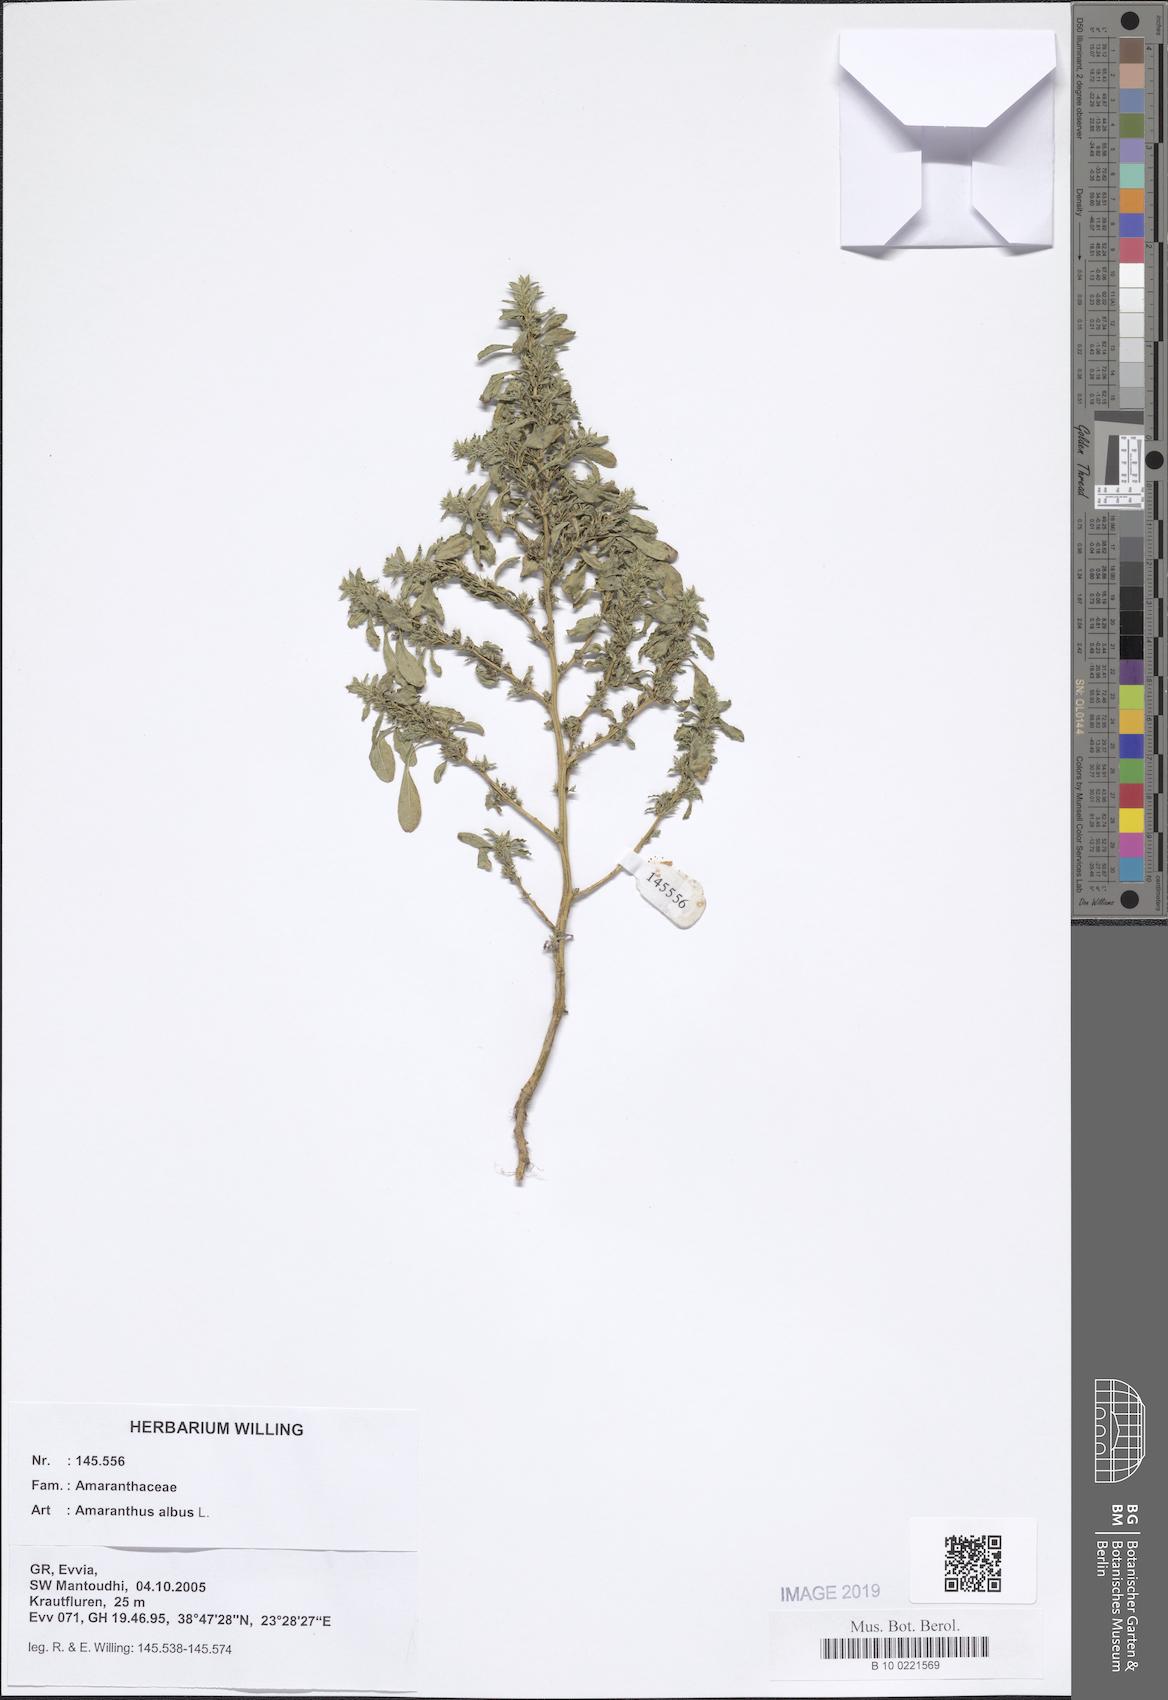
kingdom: Plantae
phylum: Tracheophyta
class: Magnoliopsida
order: Caryophyllales
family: Amaranthaceae
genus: Amaranthus
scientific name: Amaranthus albus
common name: White pigweed
